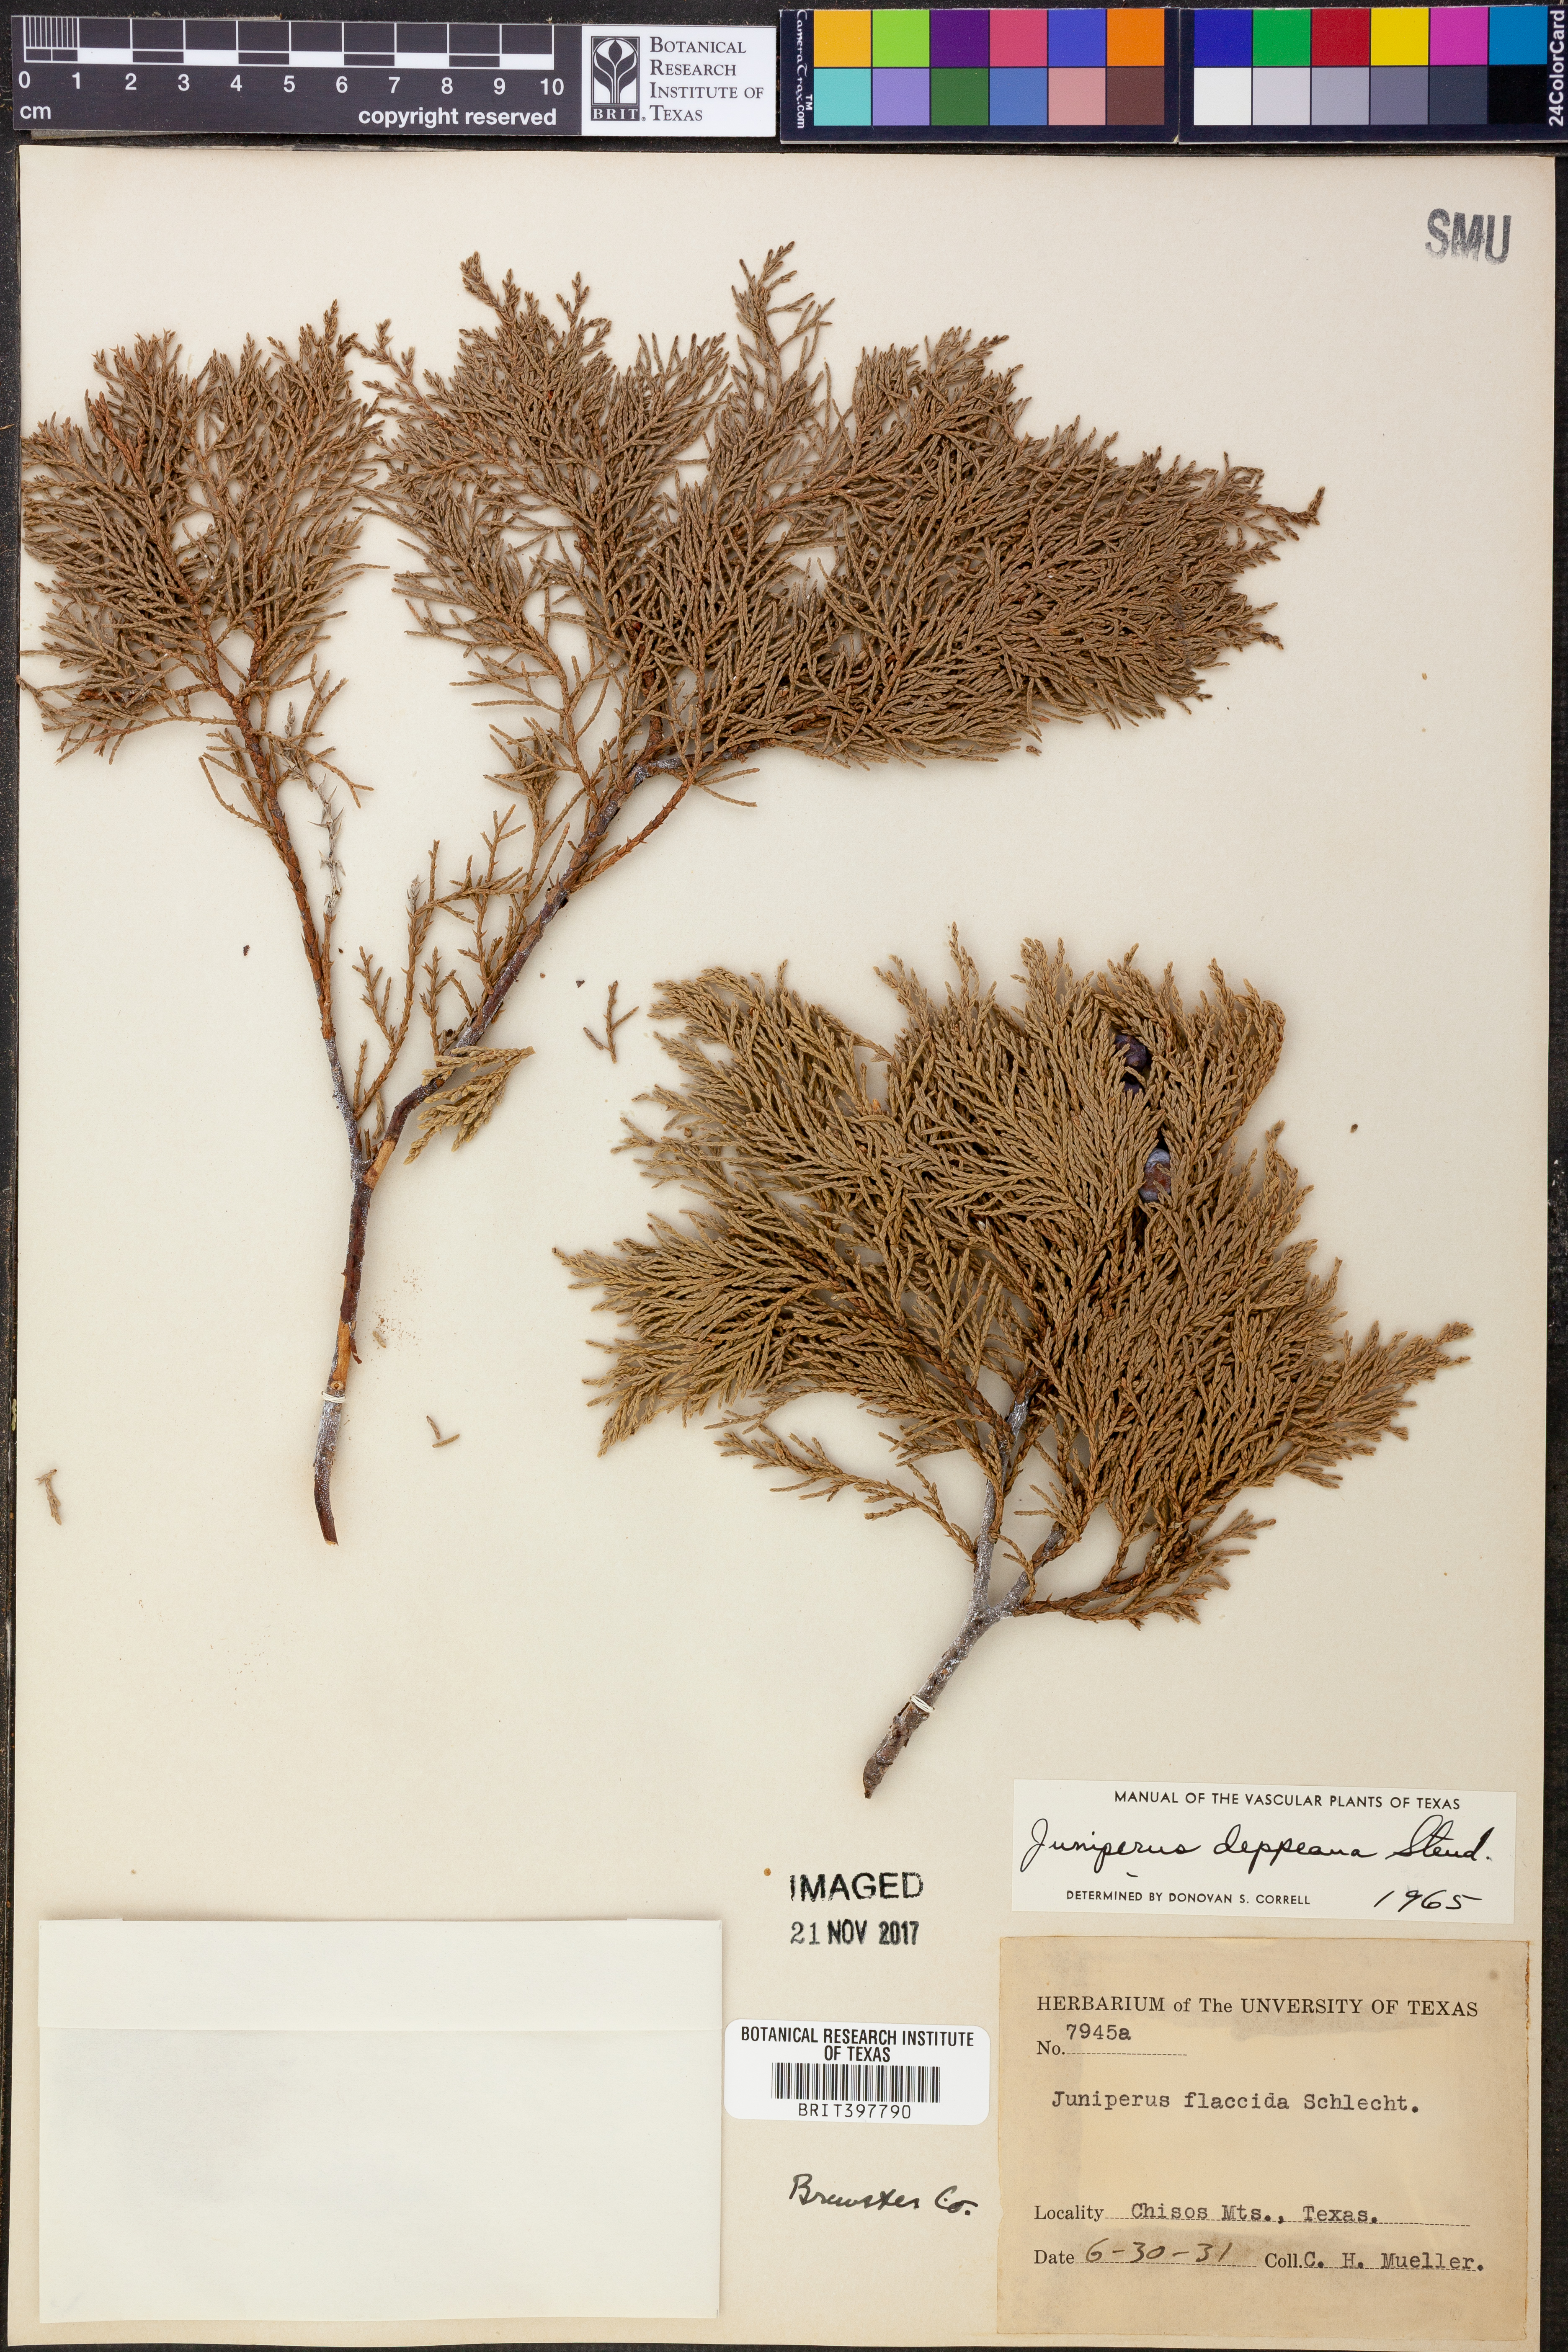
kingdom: Plantae
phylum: Tracheophyta
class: Pinopsida
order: Pinales
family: Cupressaceae
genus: Juniperus
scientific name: Juniperus deppeana
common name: Alligator juniper
